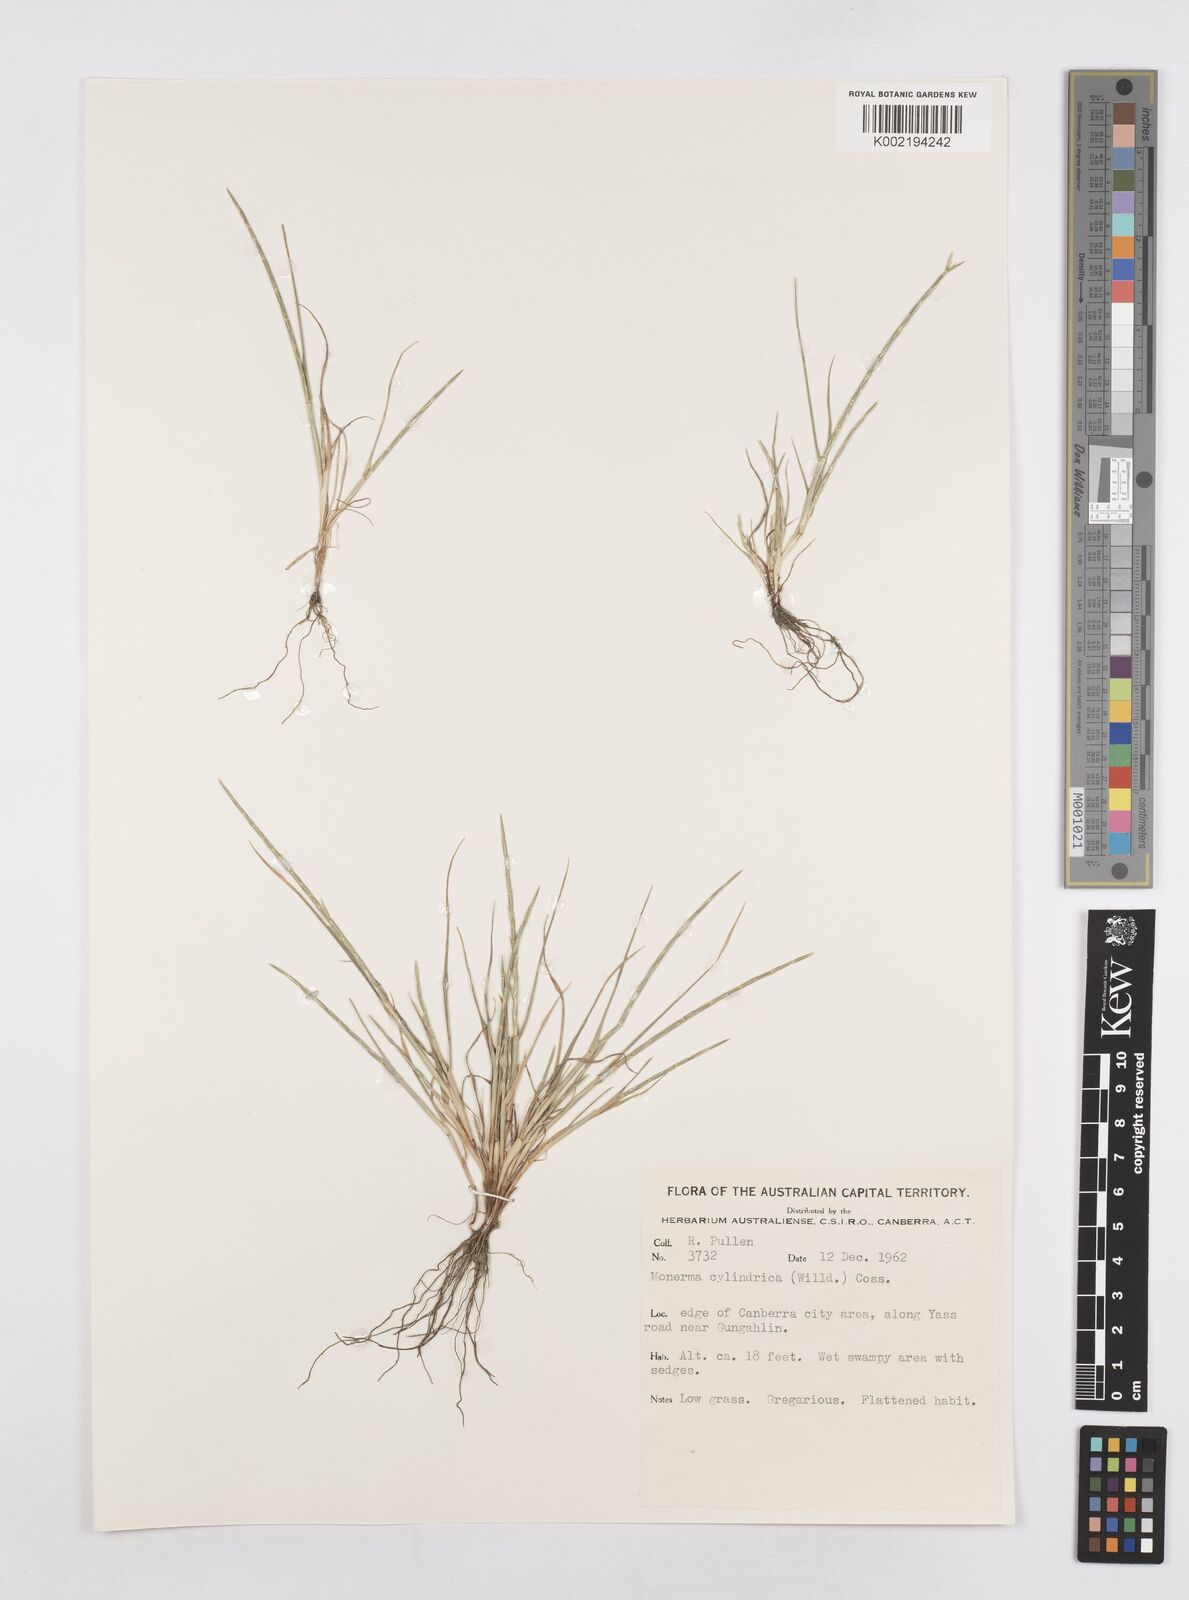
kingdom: Plantae
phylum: Tracheophyta
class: Liliopsida
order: Poales
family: Poaceae
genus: Parapholis
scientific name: Parapholis cylindrica
